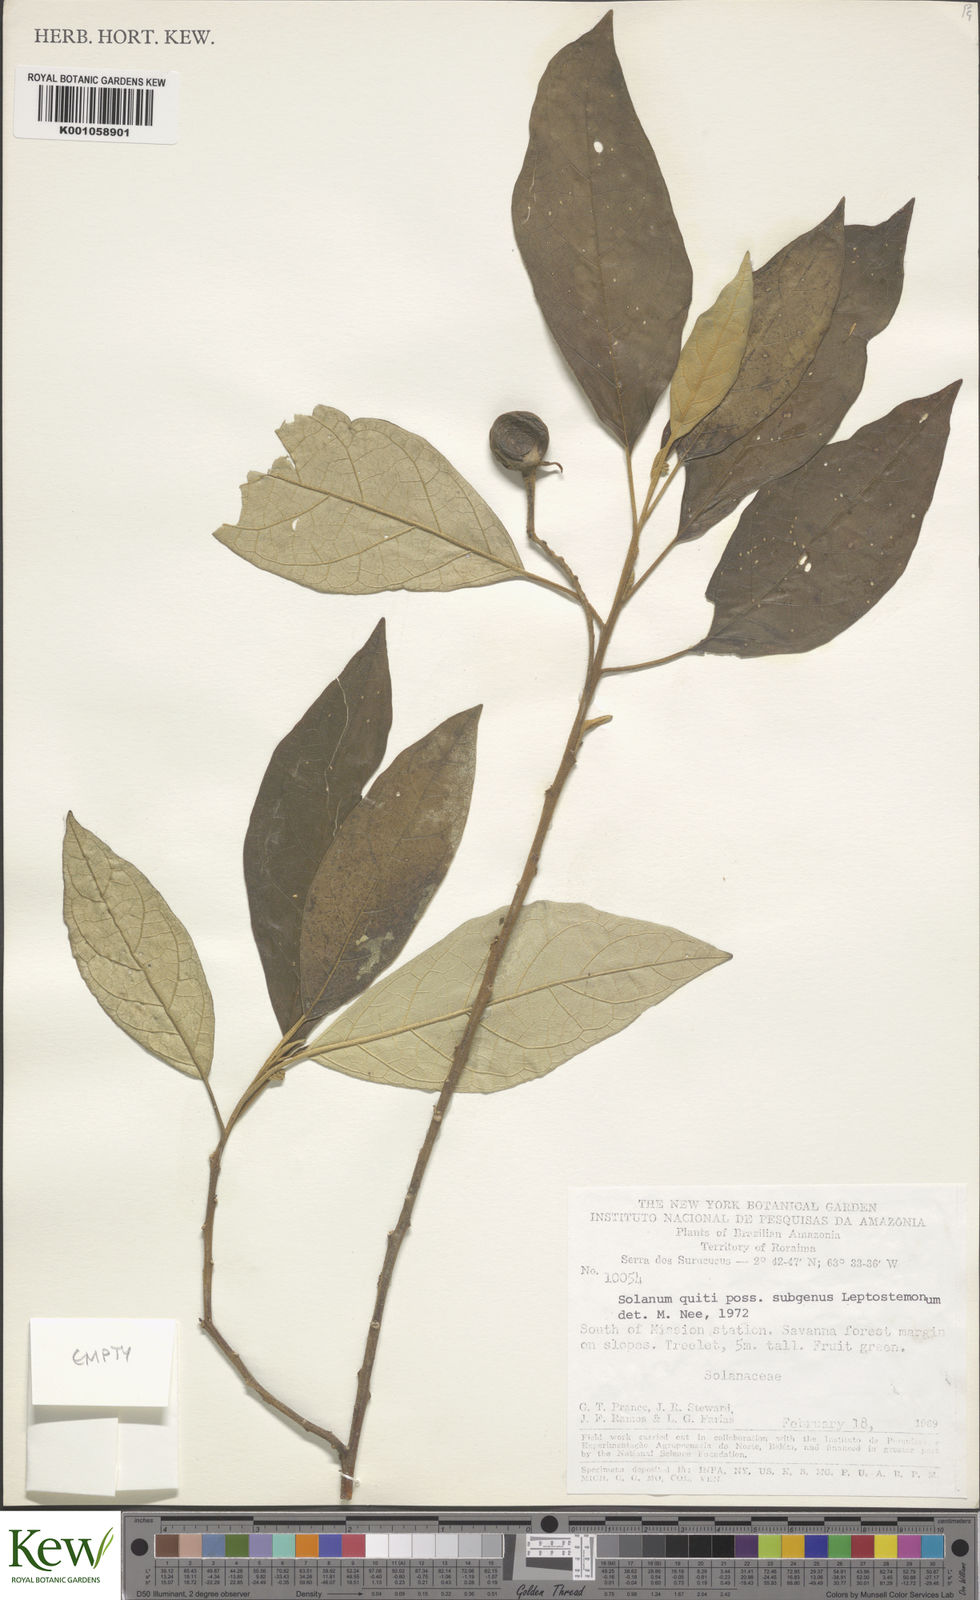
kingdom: Plantae
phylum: Tracheophyta
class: Magnoliopsida
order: Solanales
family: Solanaceae
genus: Solanum
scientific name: Solanum affine
